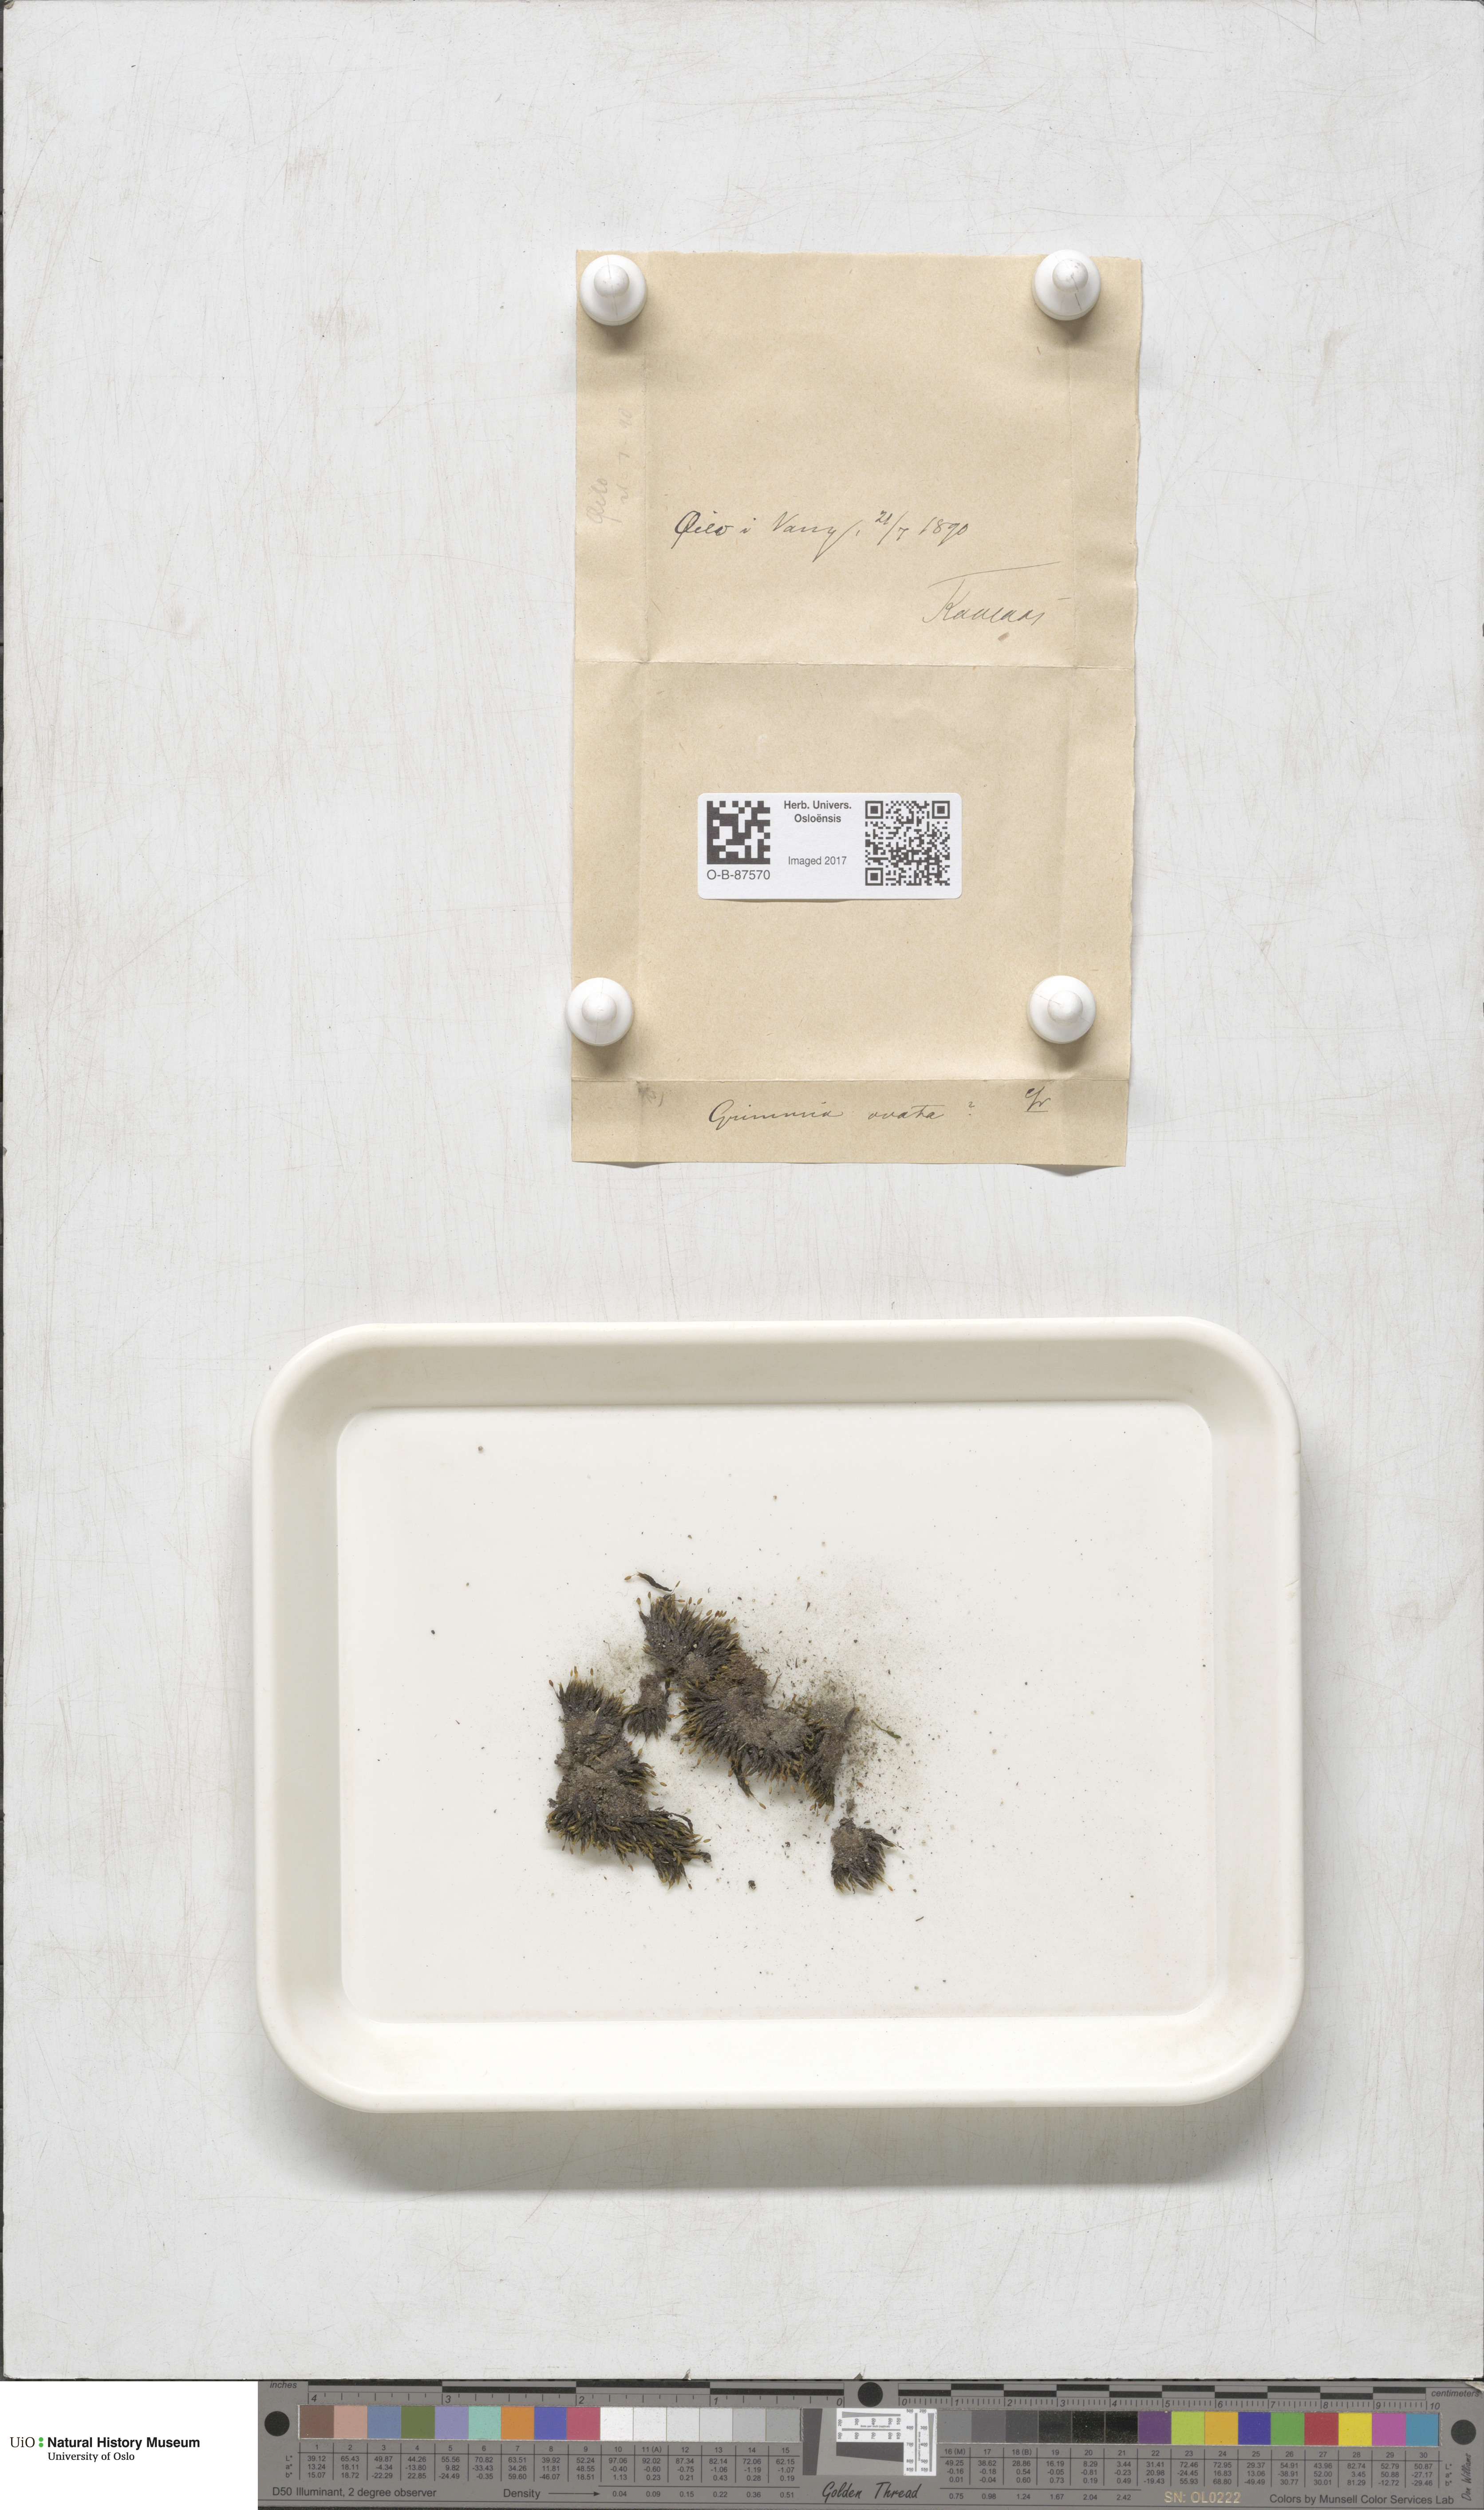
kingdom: Plantae
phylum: Bryophyta
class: Bryopsida
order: Grimmiales
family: Grimmiaceae
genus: Grimmia
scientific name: Grimmia ovalis
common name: Oval grimmia
